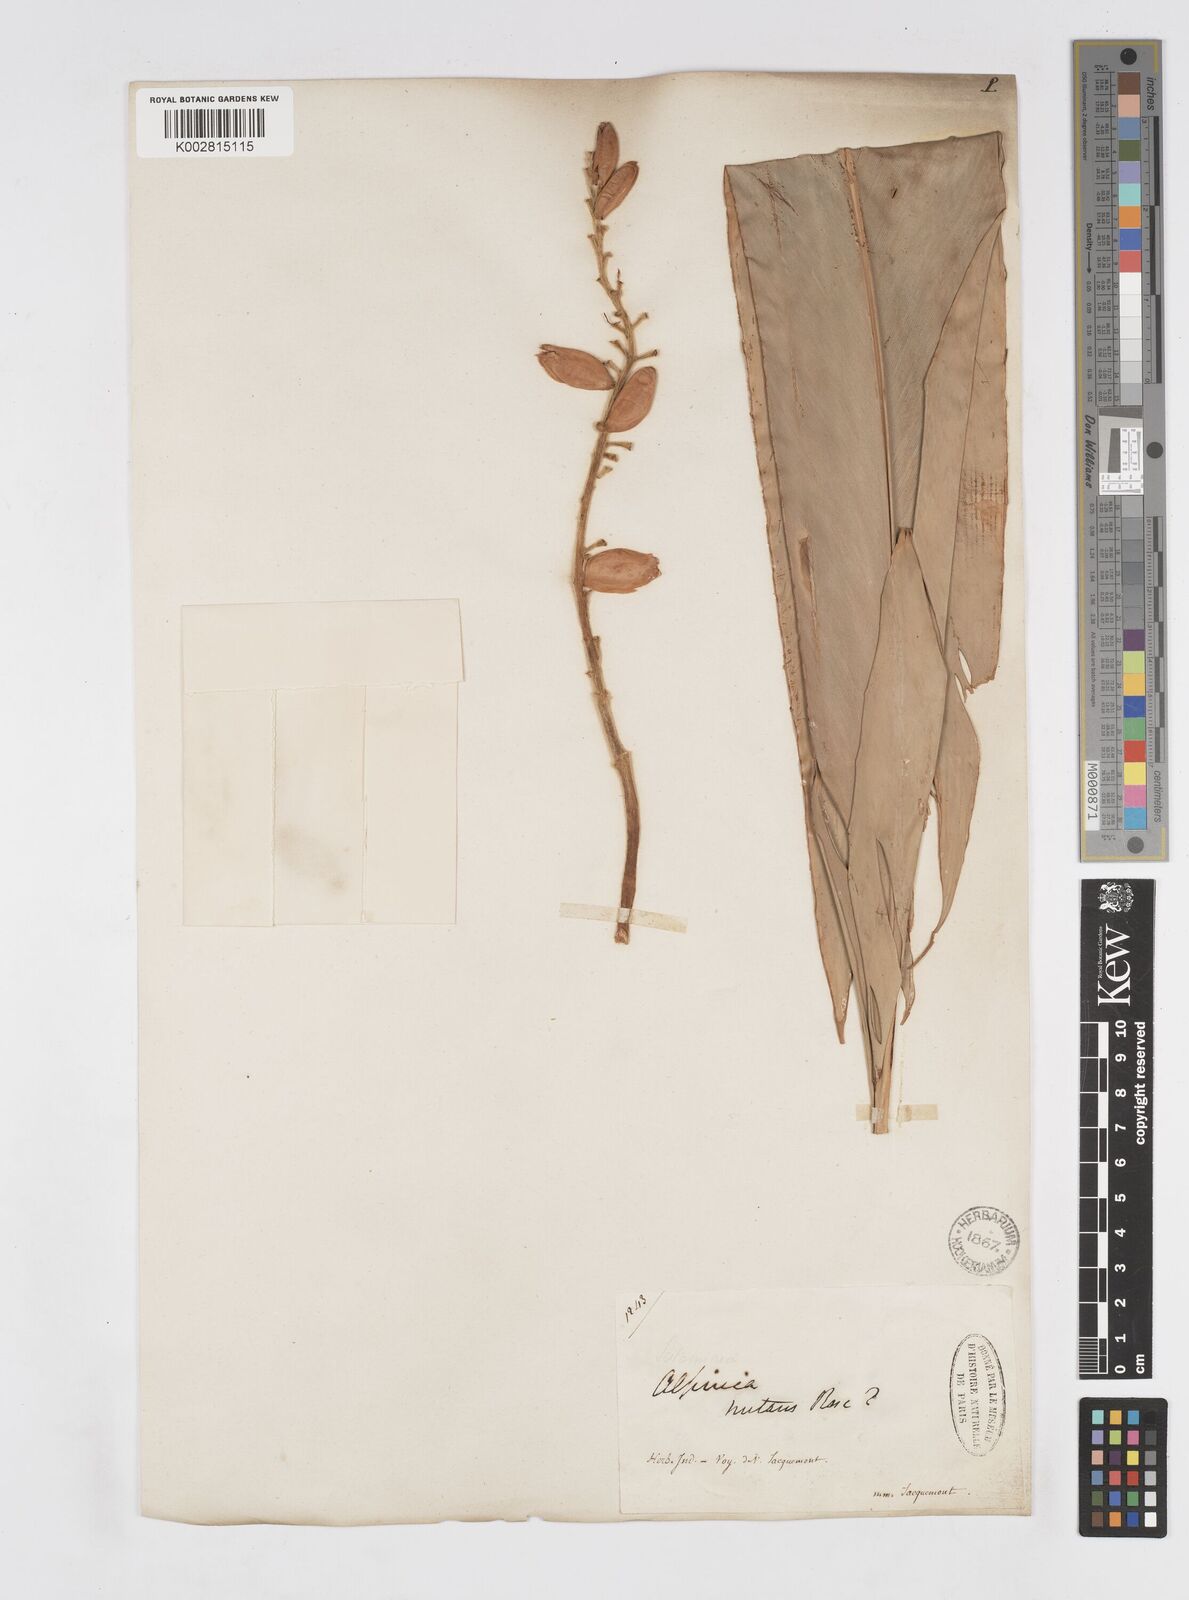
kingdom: Plantae
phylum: Tracheophyta
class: Liliopsida
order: Zingiberales
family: Zingiberaceae
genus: Alpinia
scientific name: Alpinia zerumbet
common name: Shellplant
